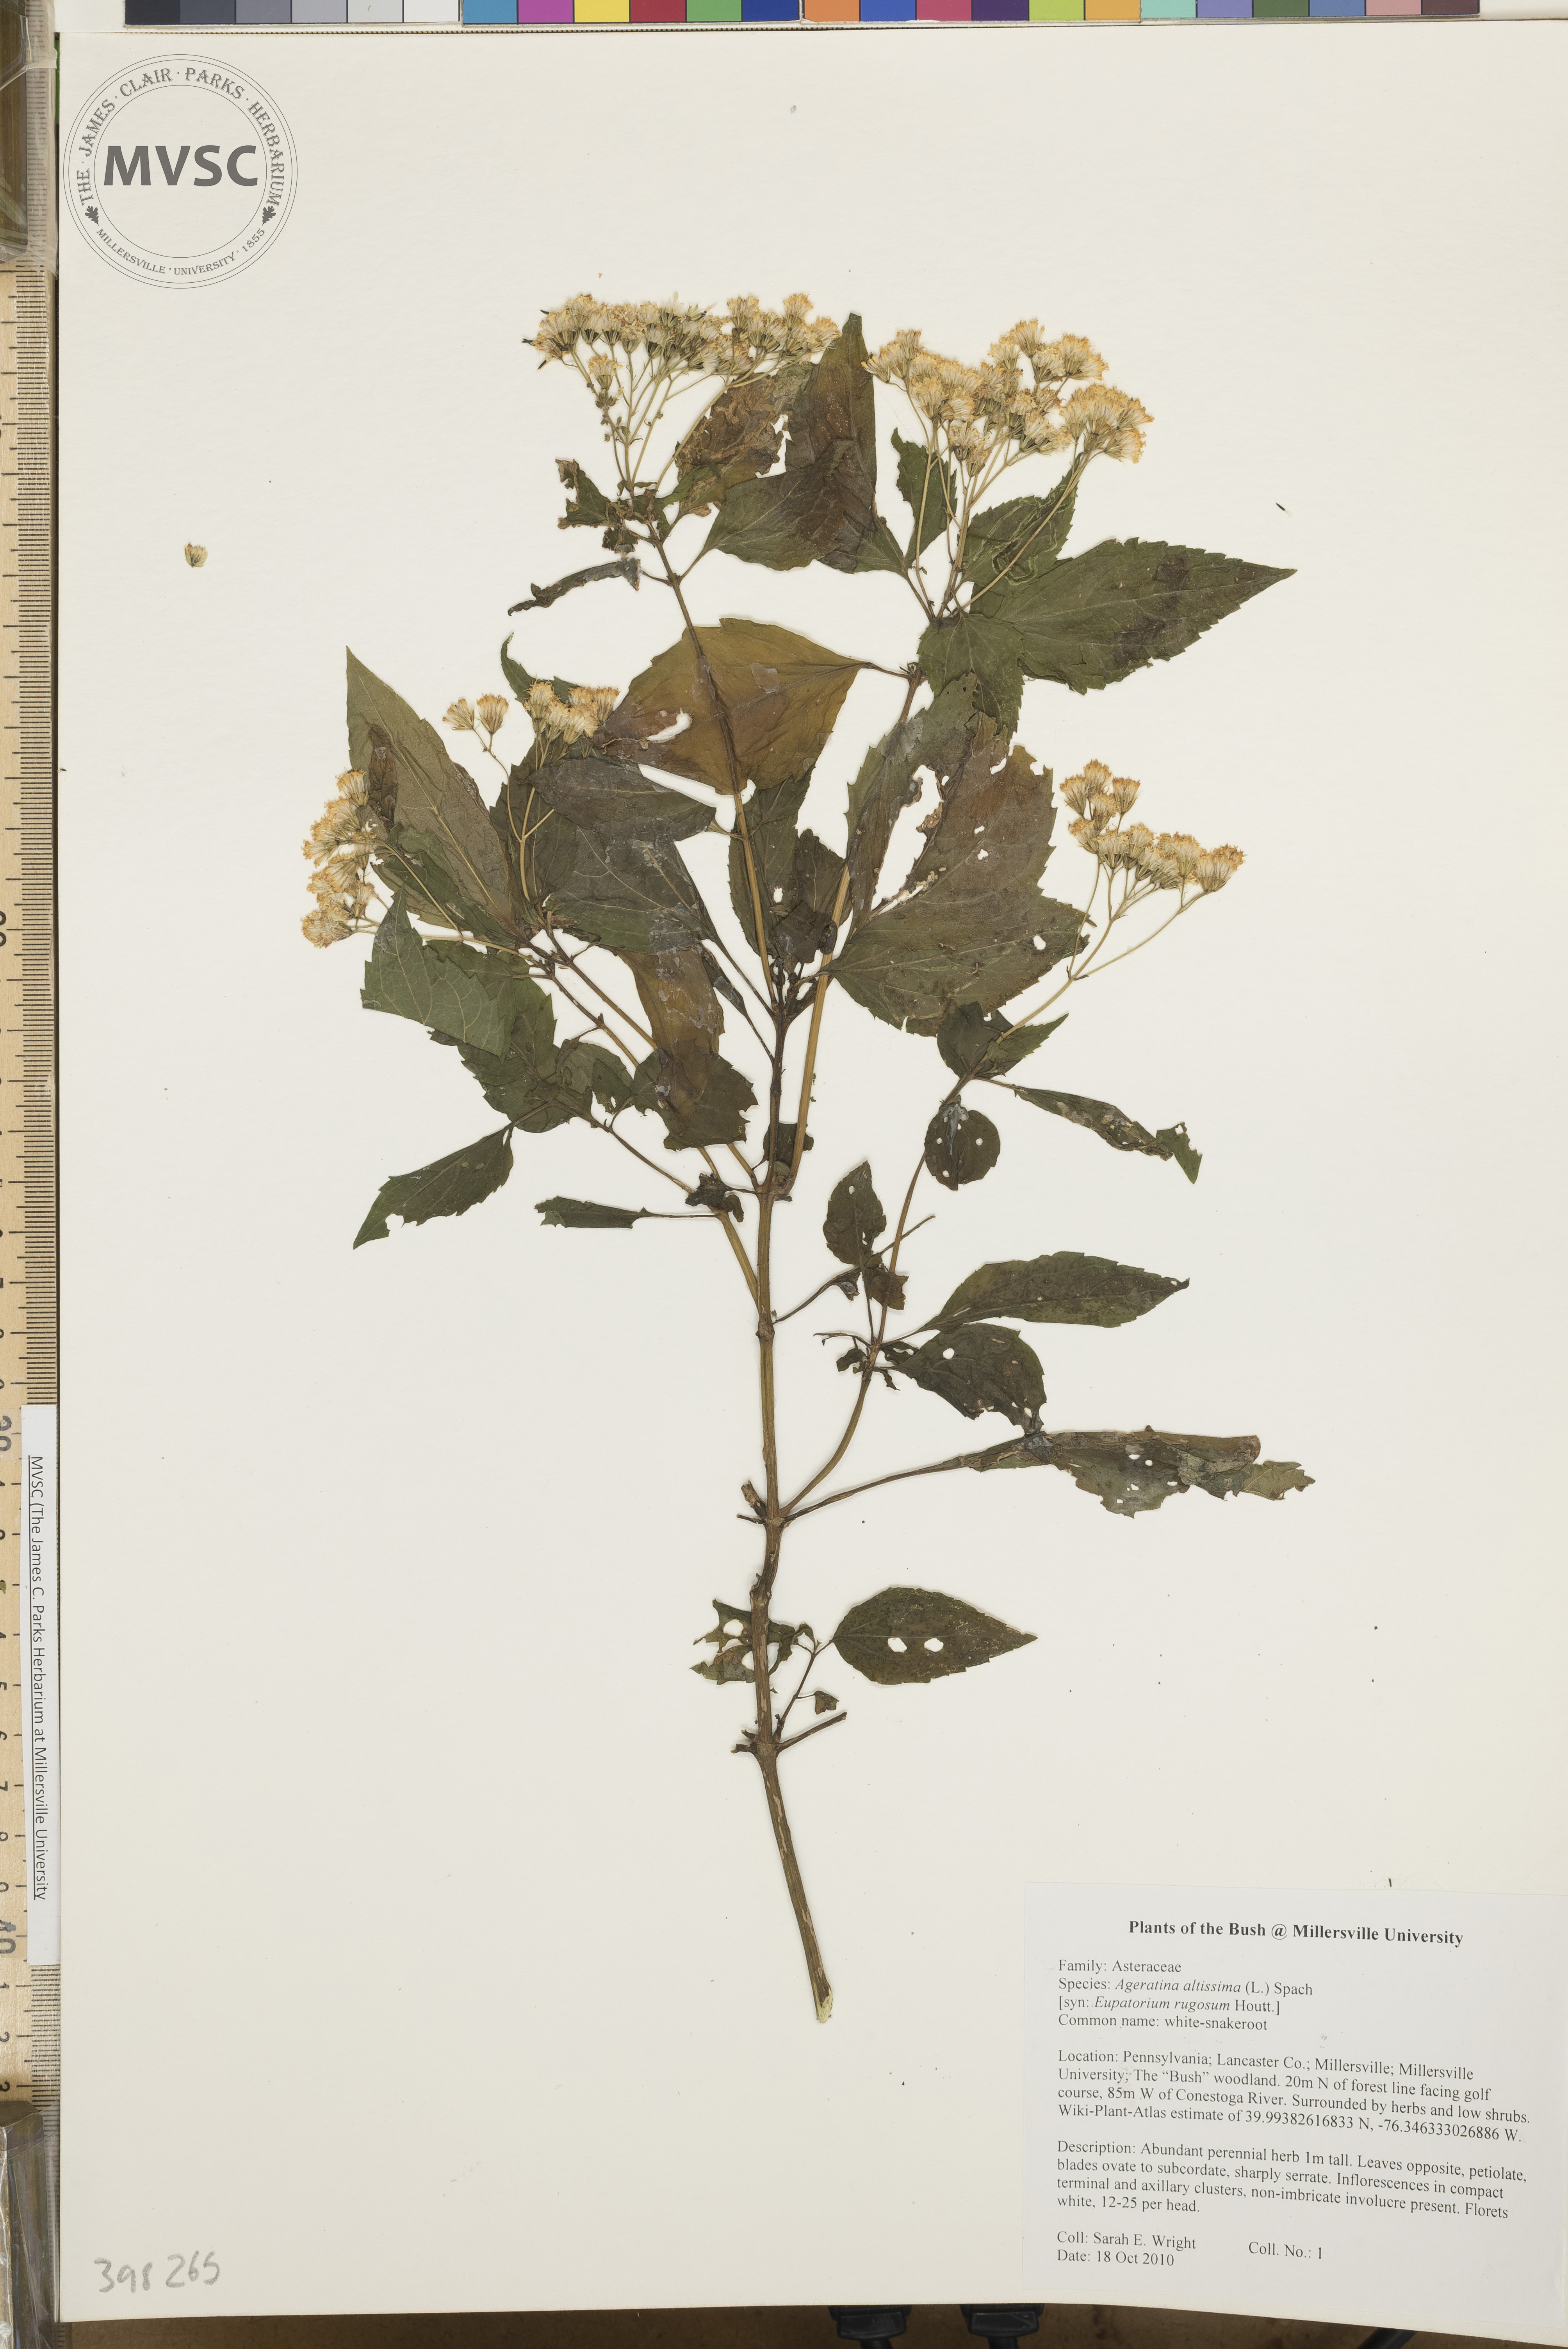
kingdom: Plantae
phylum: Tracheophyta
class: Magnoliopsida
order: Asterales
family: Asteraceae
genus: Ageratina
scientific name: Ageratina altissima
